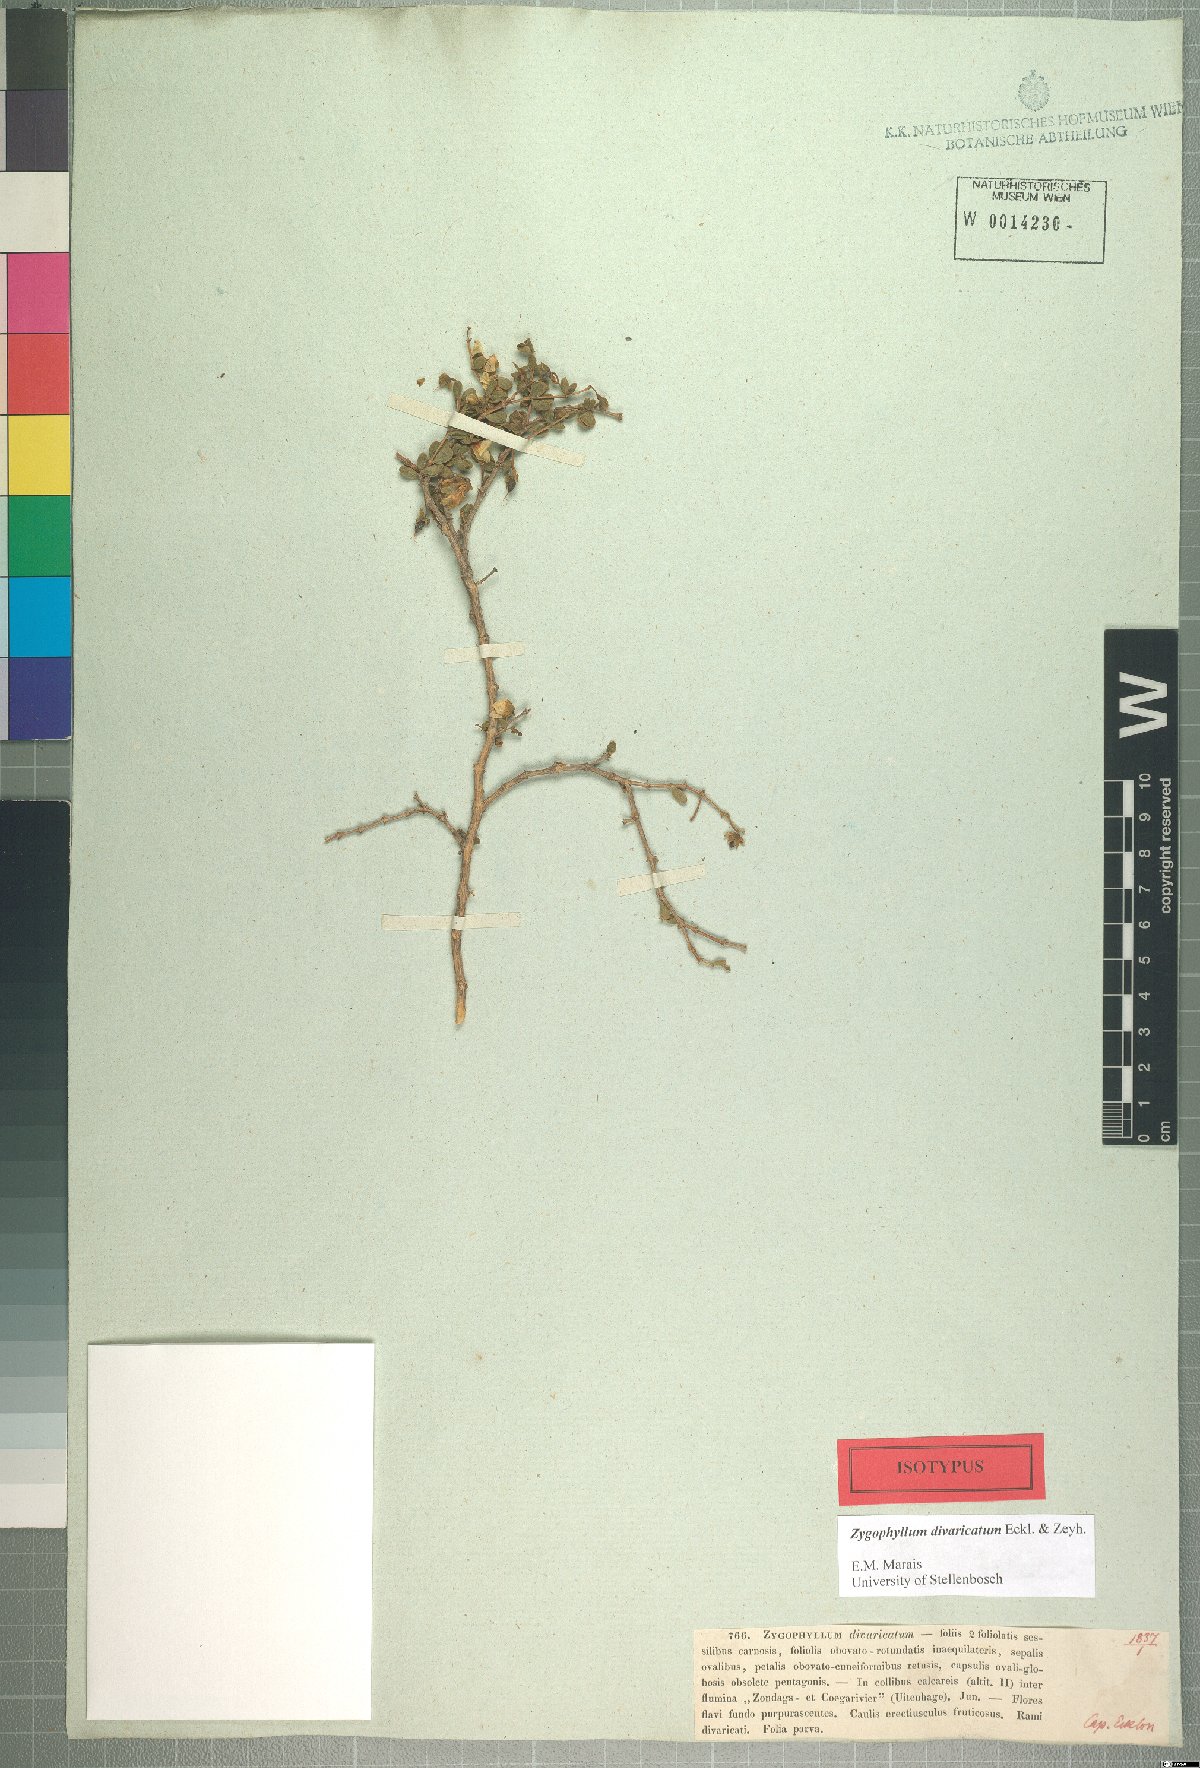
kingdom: Plantae
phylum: Tracheophyta
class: Magnoliopsida
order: Zygophyllales
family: Zygophyllaceae
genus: Roepera
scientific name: Roepera divaricata
